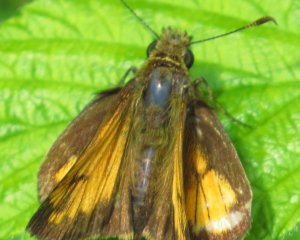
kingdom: Animalia
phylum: Arthropoda
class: Insecta
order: Lepidoptera
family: Hesperiidae
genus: Lon
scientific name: Lon hobomok
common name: Hobomok Skipper
